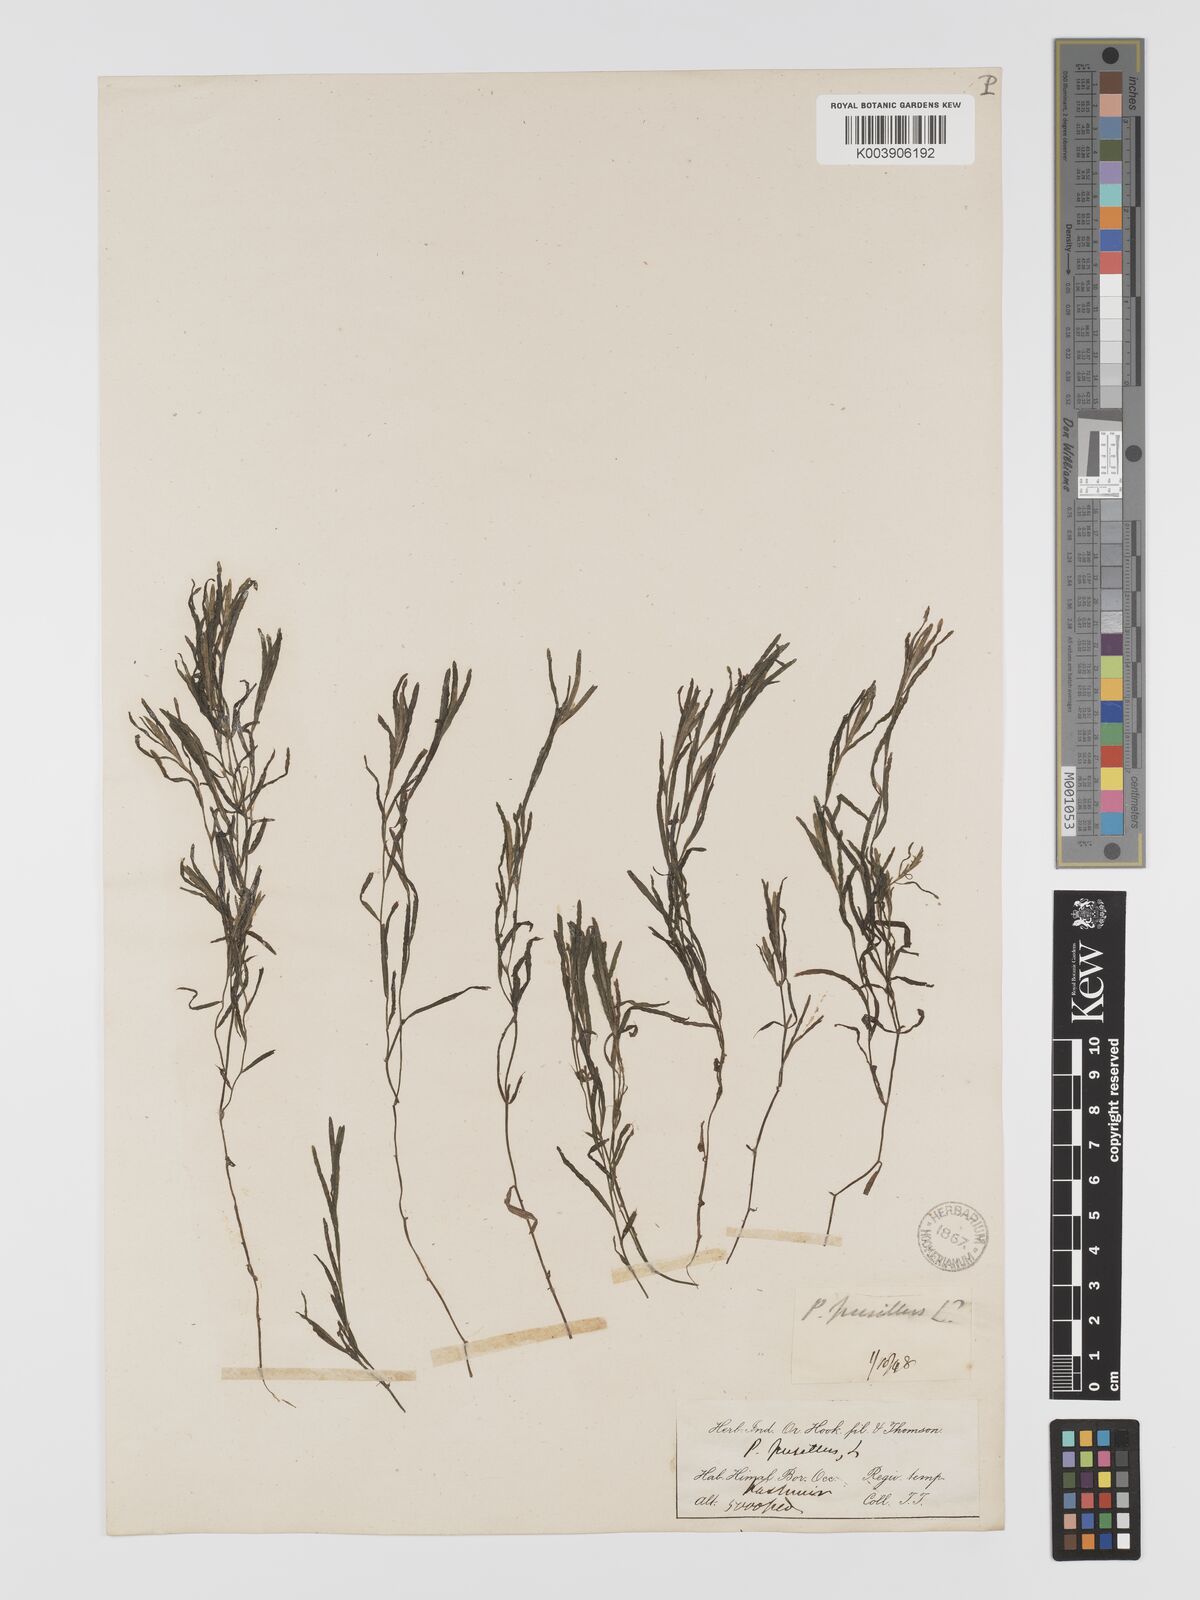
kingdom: Plantae
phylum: Tracheophyta
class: Liliopsida
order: Alismatales
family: Potamogetonaceae
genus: Potamogeton
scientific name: Potamogeton pusillus
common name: Lesser pondweed
